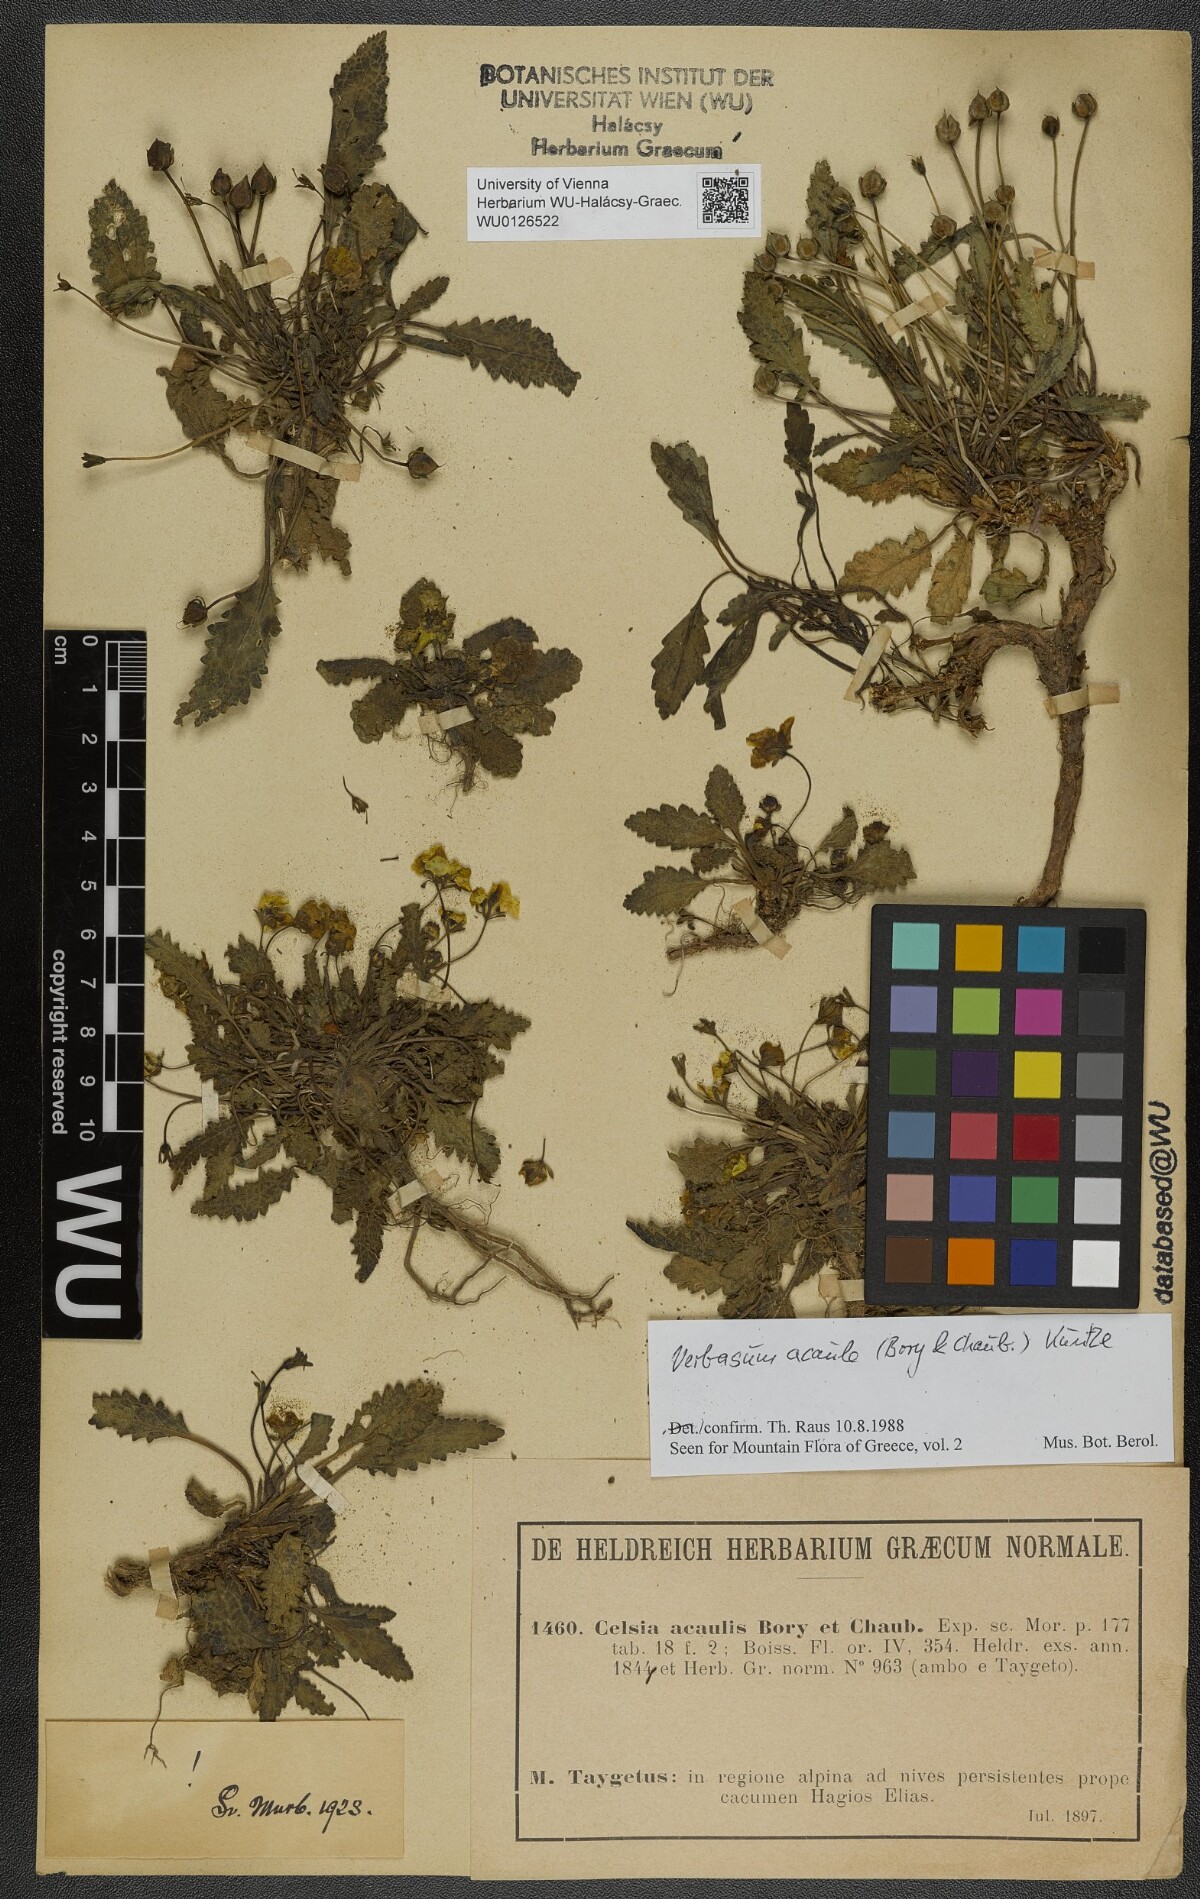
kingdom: Plantae
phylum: Tracheophyta
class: Magnoliopsida
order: Lamiales
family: Scrophulariaceae
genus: Verbascum
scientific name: Verbascum acaule
